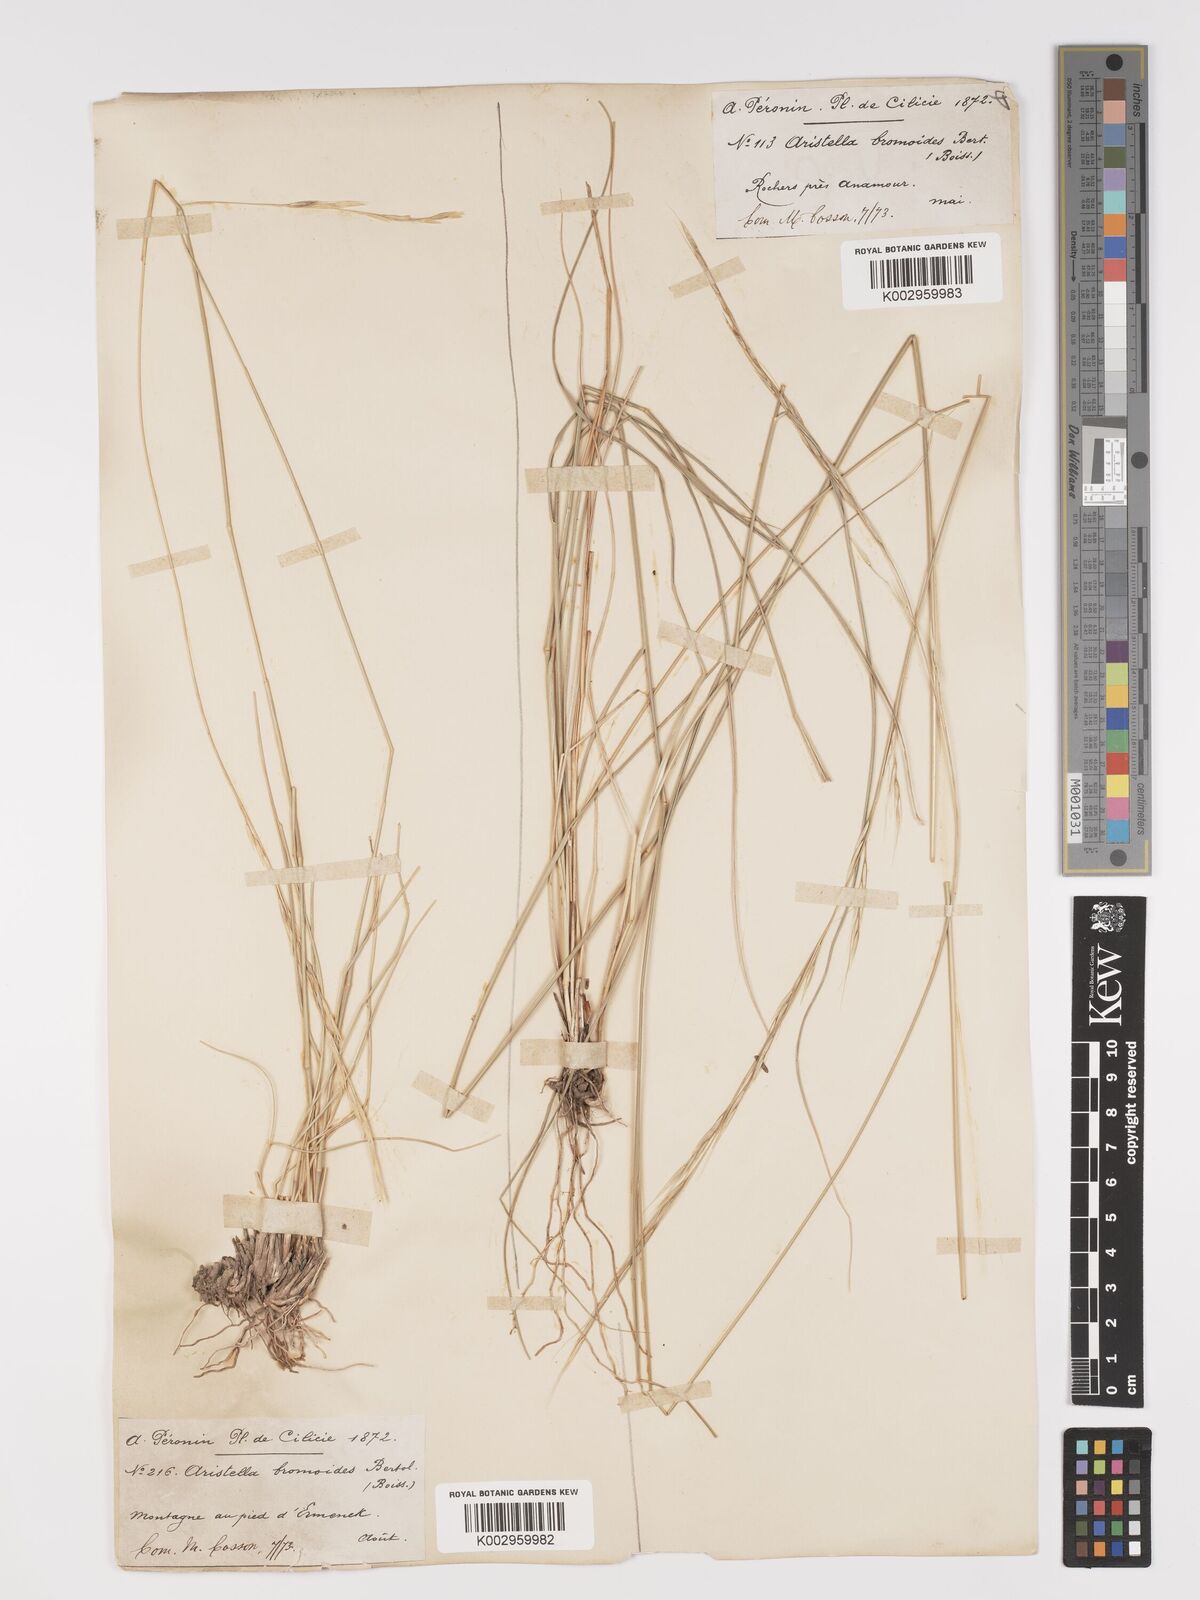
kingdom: Plantae
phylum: Tracheophyta
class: Liliopsida
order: Poales
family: Poaceae
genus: Achnatherum
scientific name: Achnatherum bromoides
